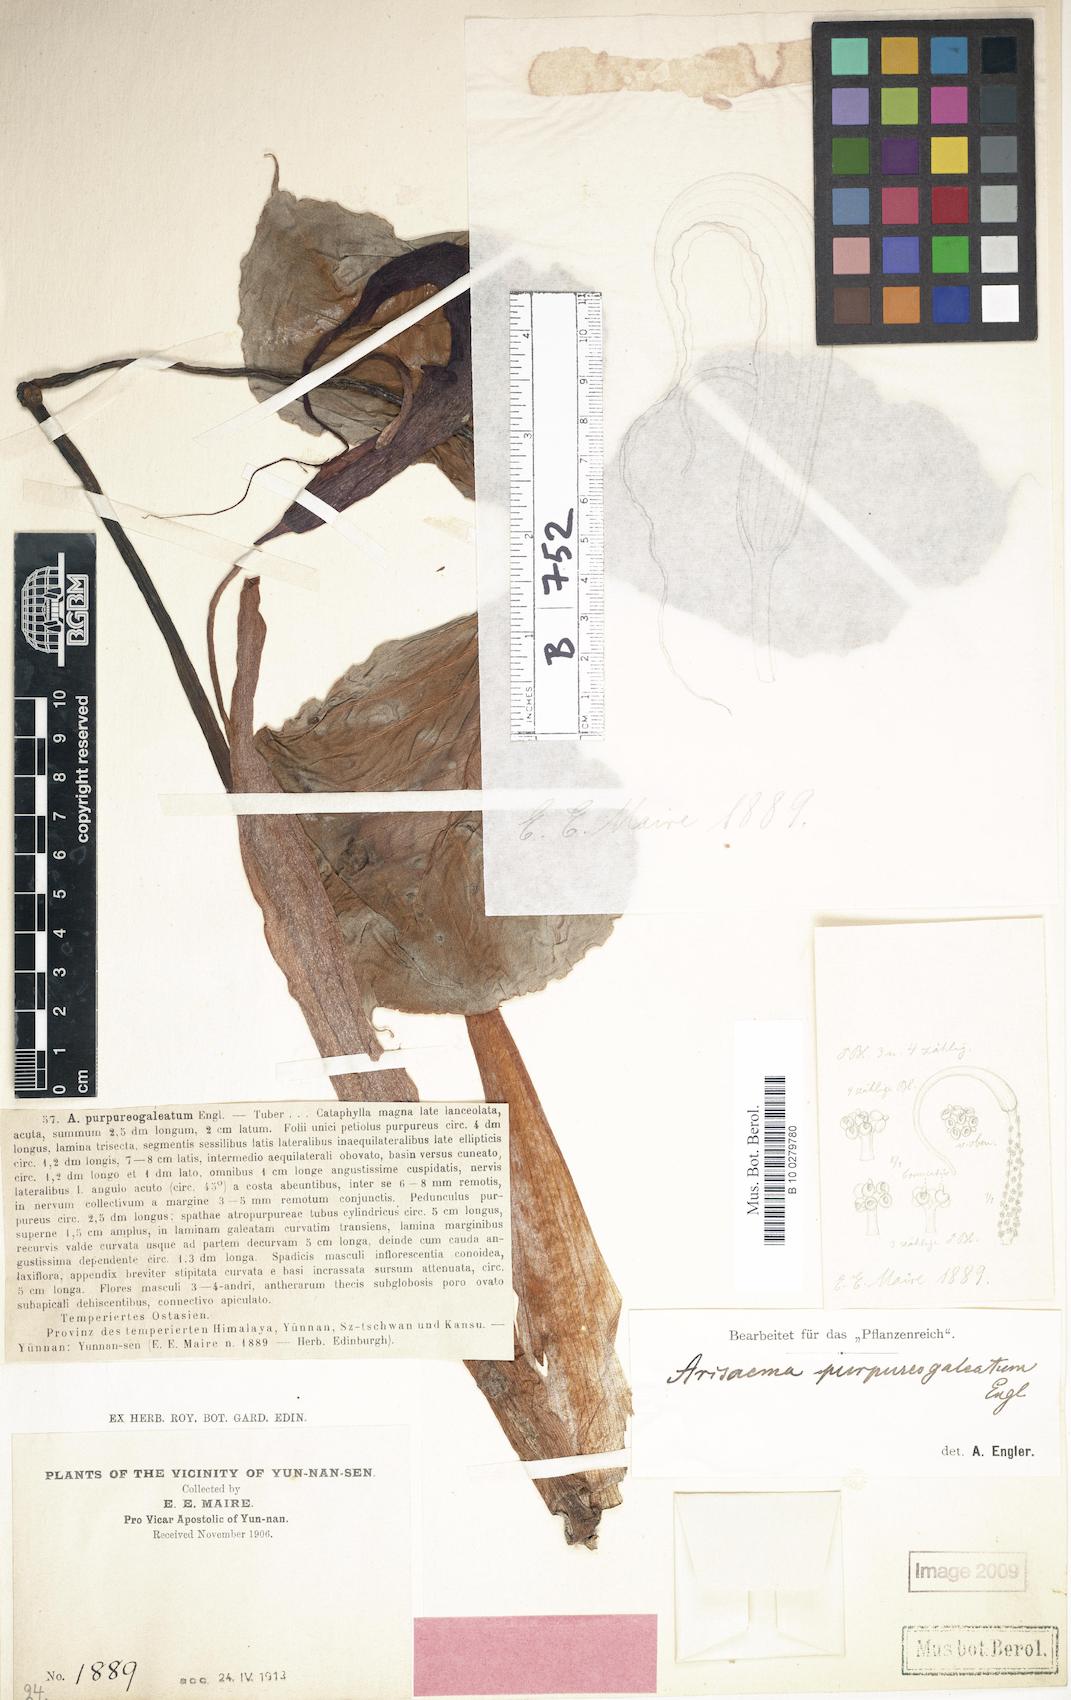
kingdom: Plantae
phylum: Tracheophyta
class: Liliopsida
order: Alismatales
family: Araceae
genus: Arisaema
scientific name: Arisaema purpureogaleatum
